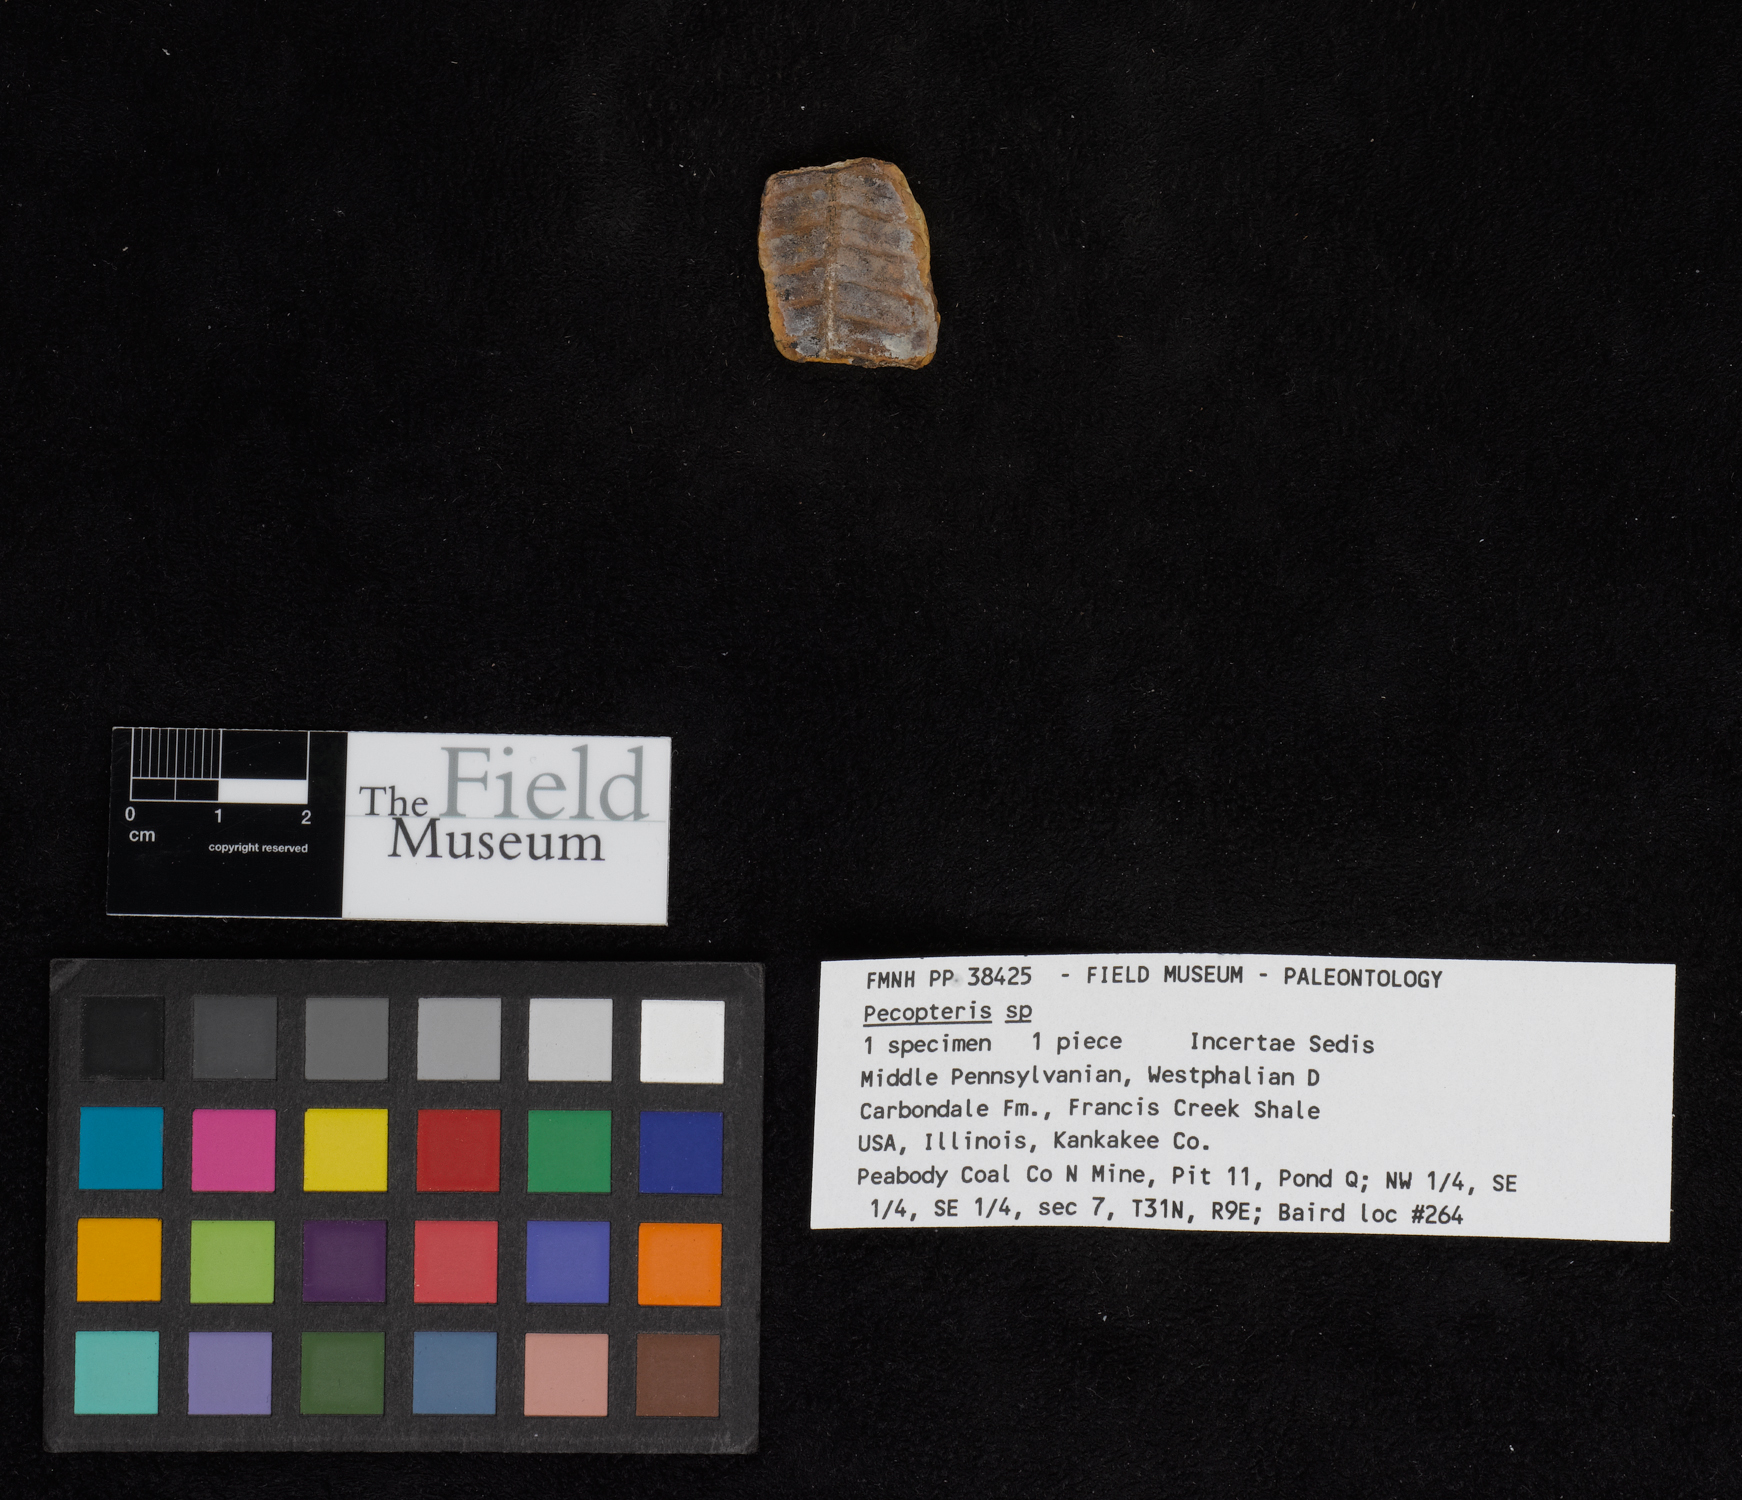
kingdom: Plantae
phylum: Tracheophyta
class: Polypodiopsida
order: Marattiales
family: Asterothecaceae
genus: Pecopteris
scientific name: Pecopteris
